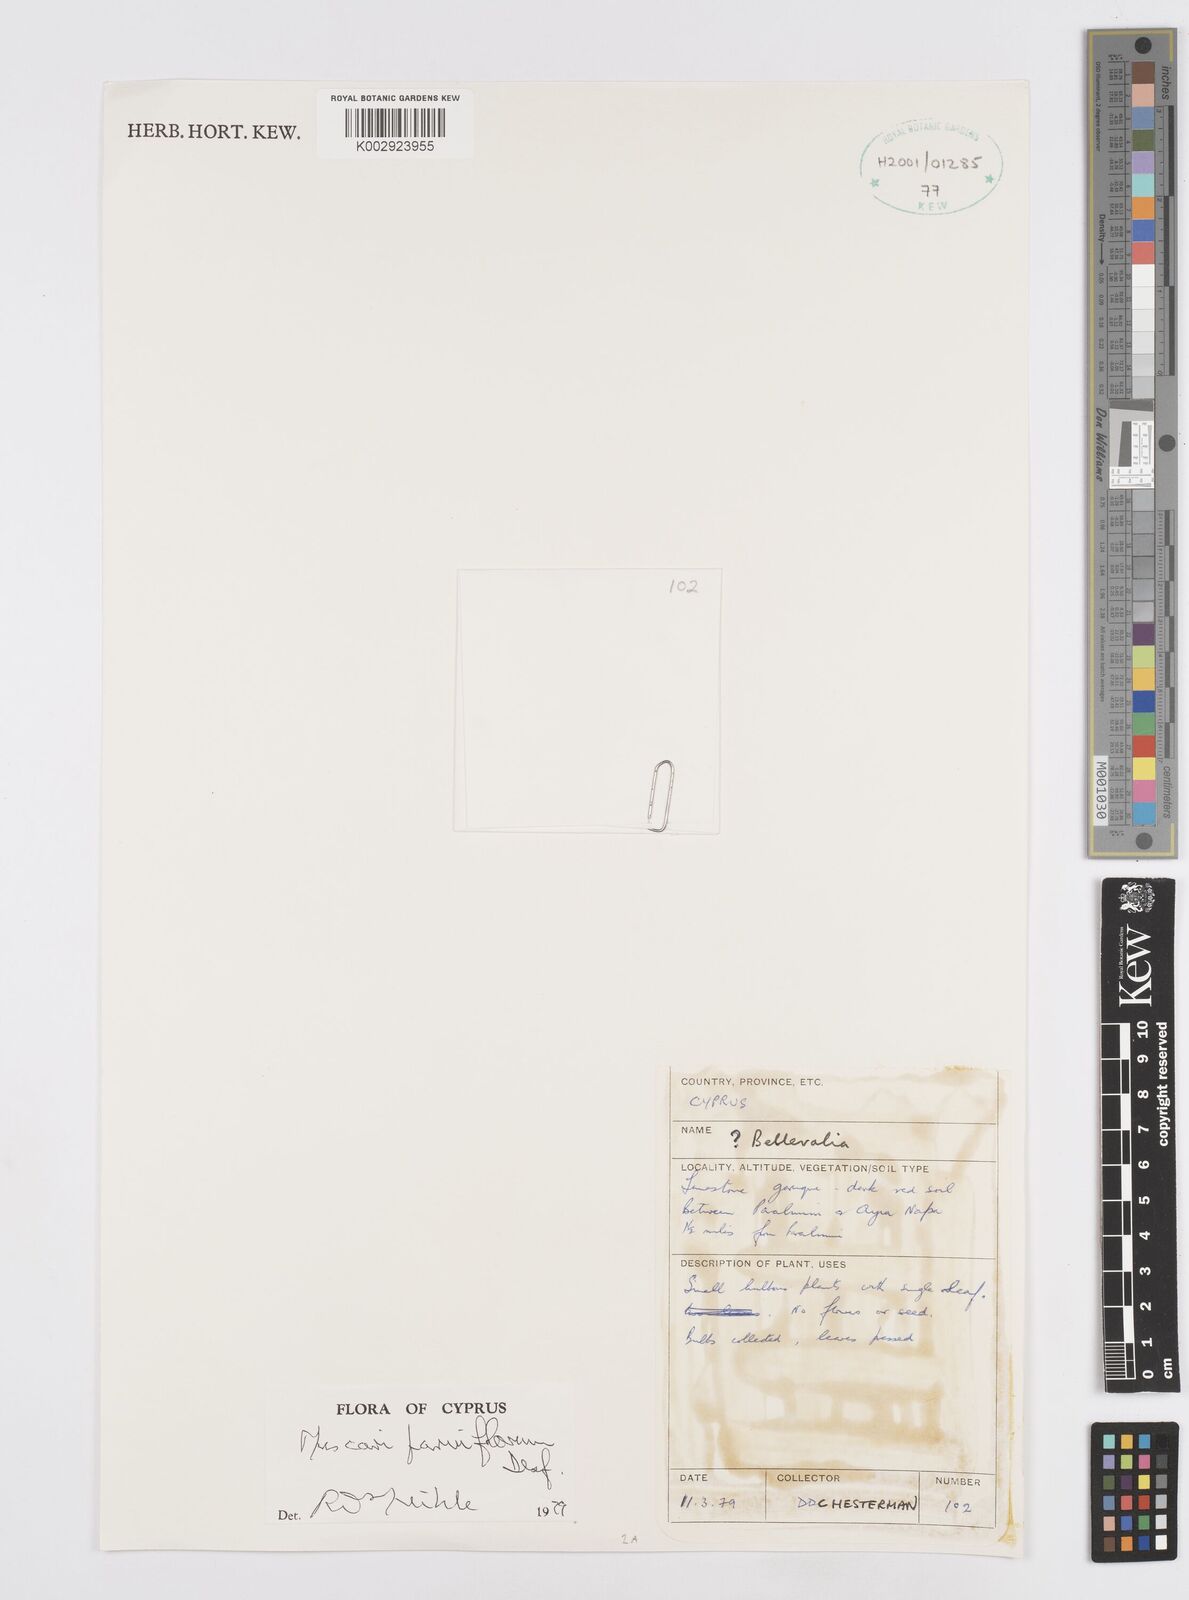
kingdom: Plantae
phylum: Tracheophyta
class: Liliopsida
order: Asparagales
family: Asparagaceae
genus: Muscari
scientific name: Muscari parviflorum
